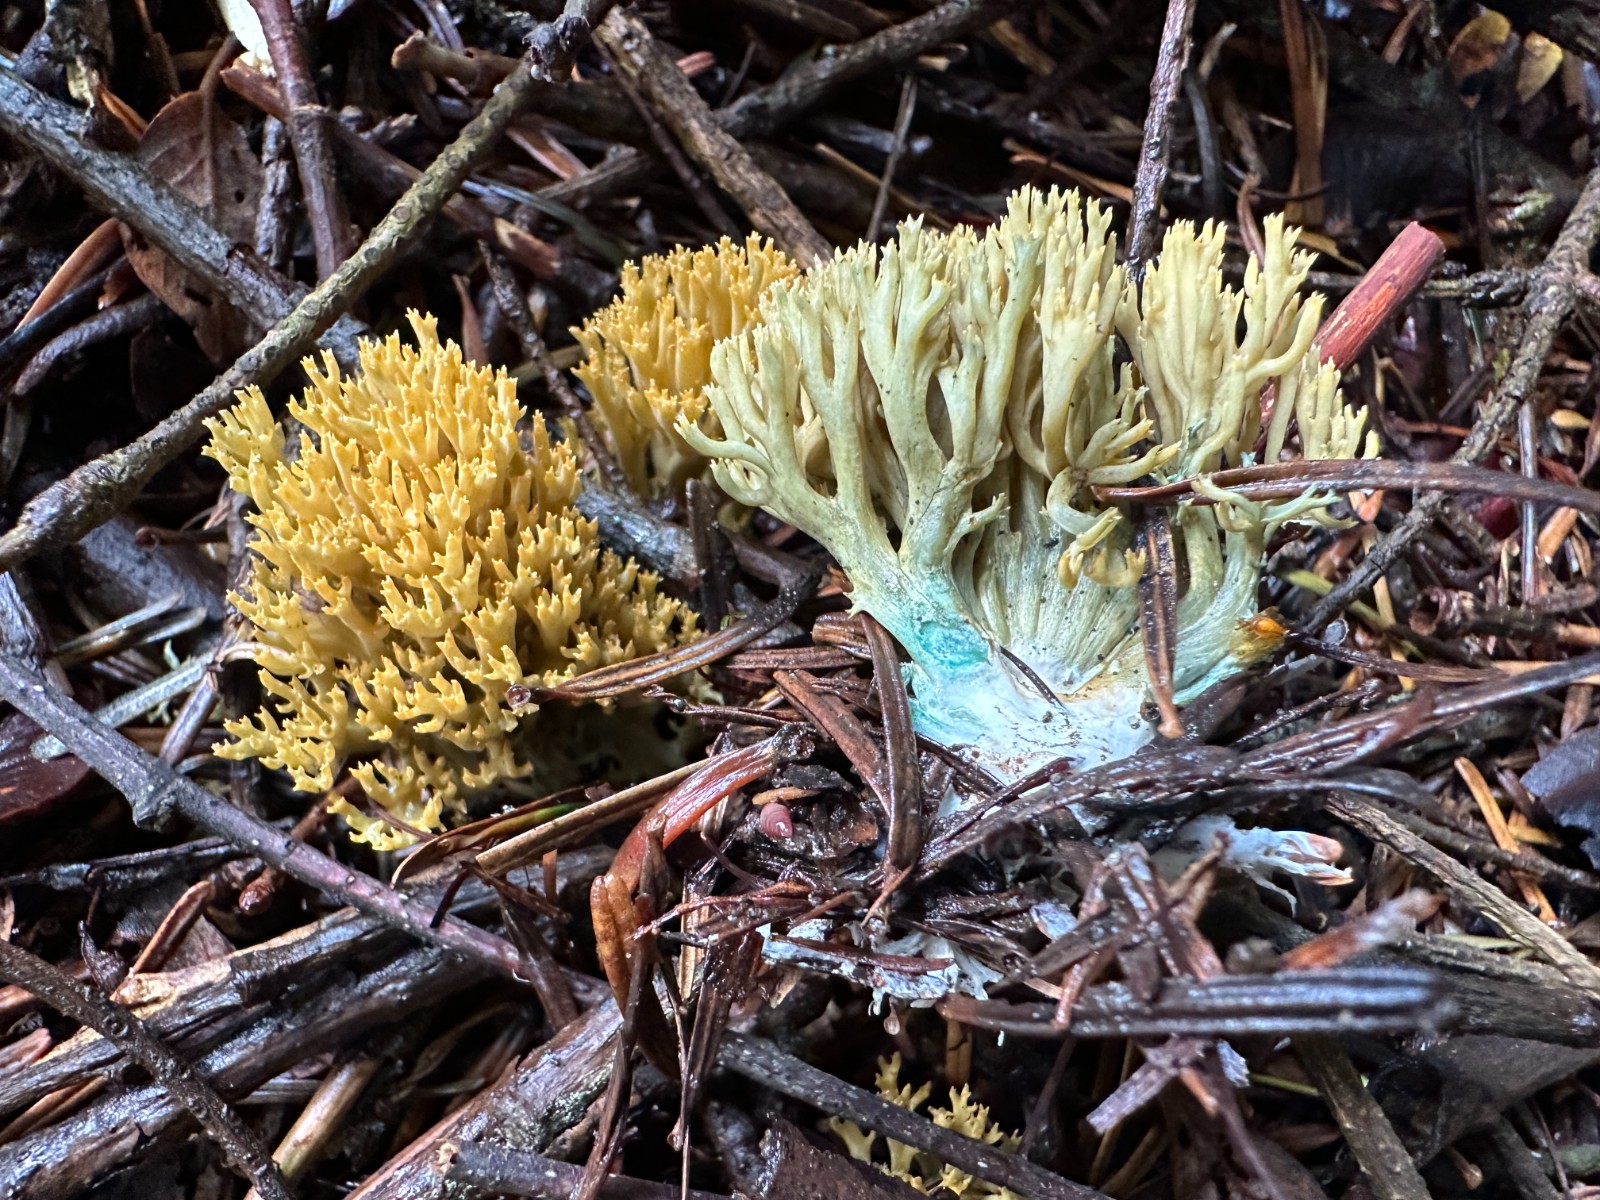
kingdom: Fungi
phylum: Basidiomycota
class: Agaricomycetes
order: Gomphales
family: Gomphaceae
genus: Phaeoclavulina
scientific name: Phaeoclavulina abietina
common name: gulgrøn koralsvamp
